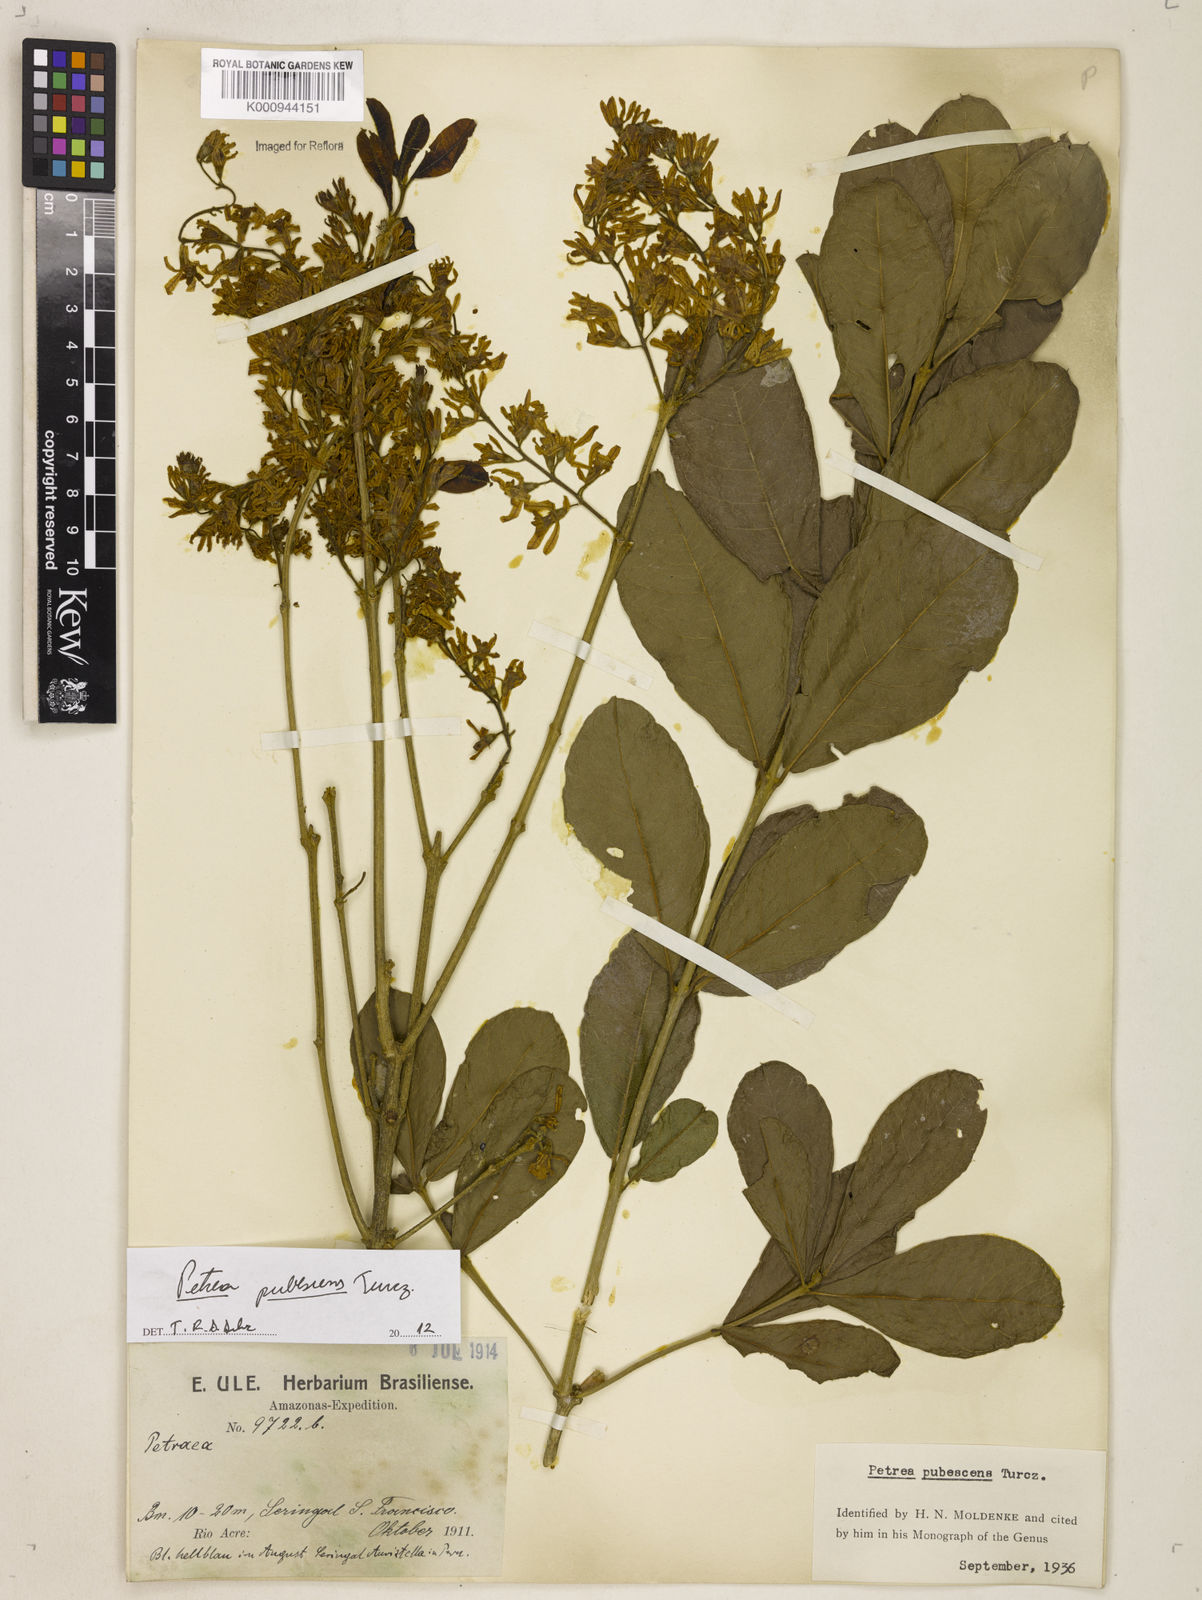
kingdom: Plantae
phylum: Tracheophyta
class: Magnoliopsida
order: Lamiales
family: Verbenaceae
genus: Petrea
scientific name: Petrea pubescens
